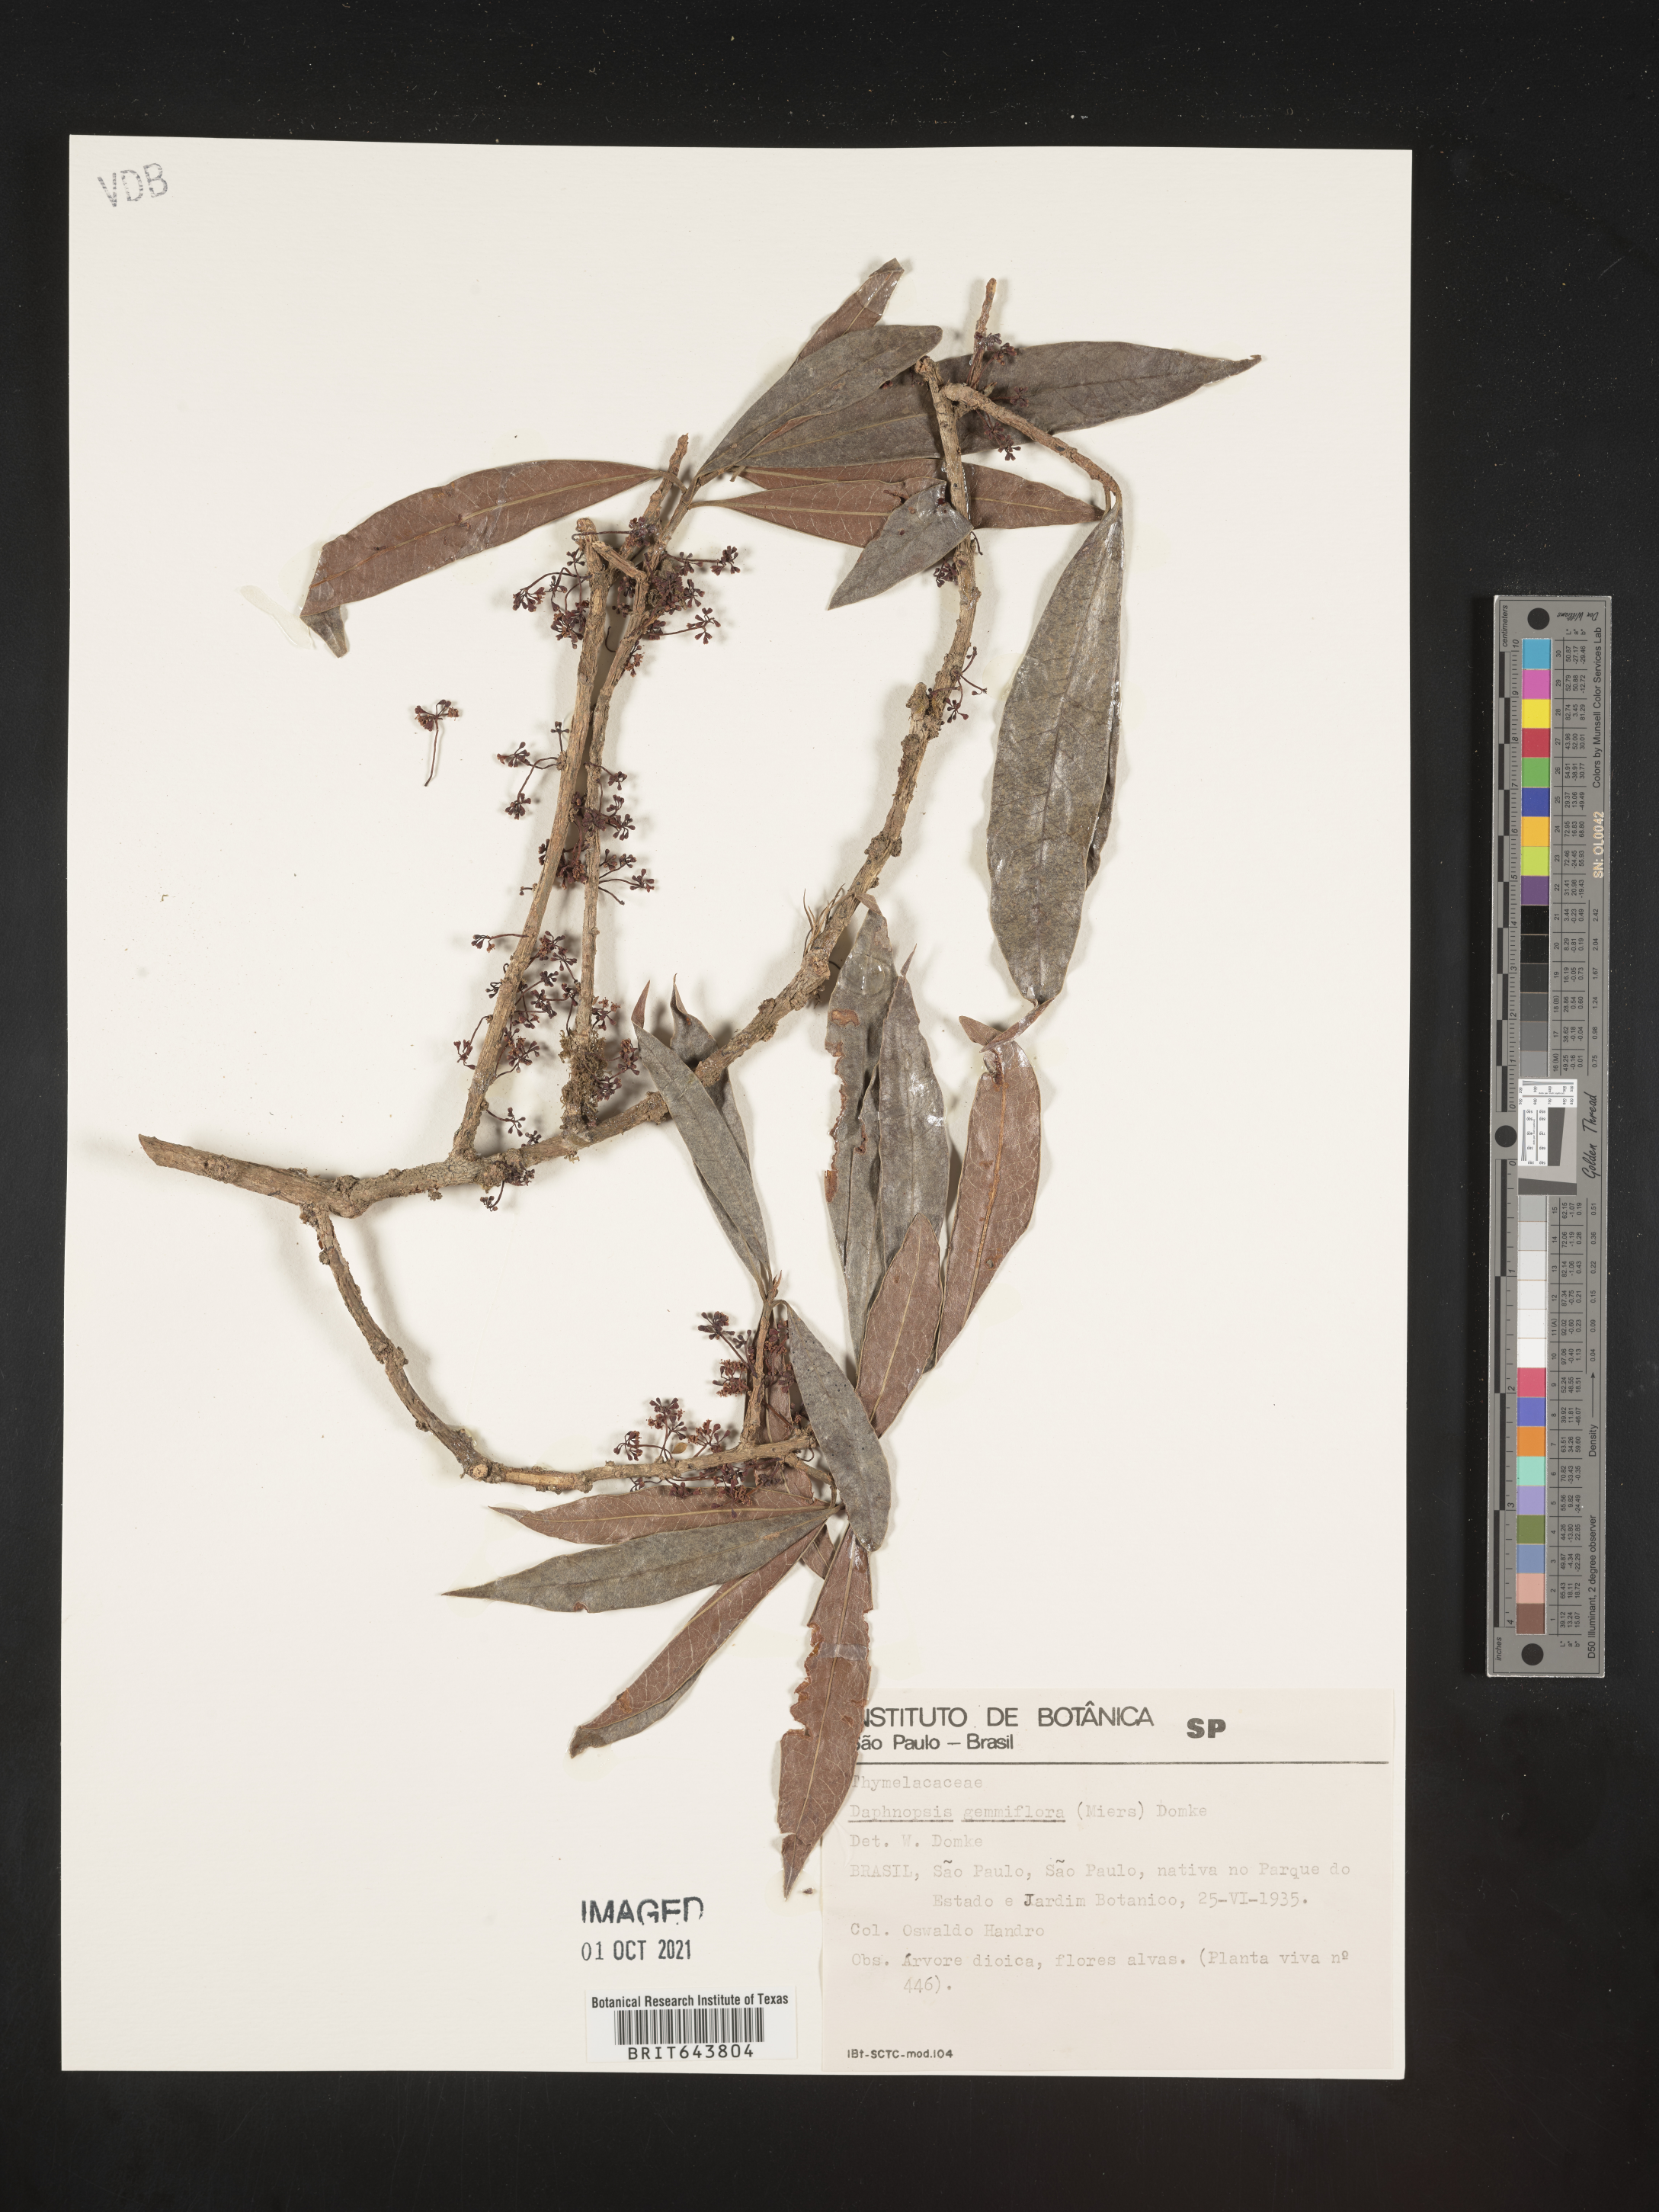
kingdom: Plantae
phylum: Tracheophyta
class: Magnoliopsida
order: Malvales
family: Thymelaeaceae
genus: Daphnopsis
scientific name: Daphnopsis
